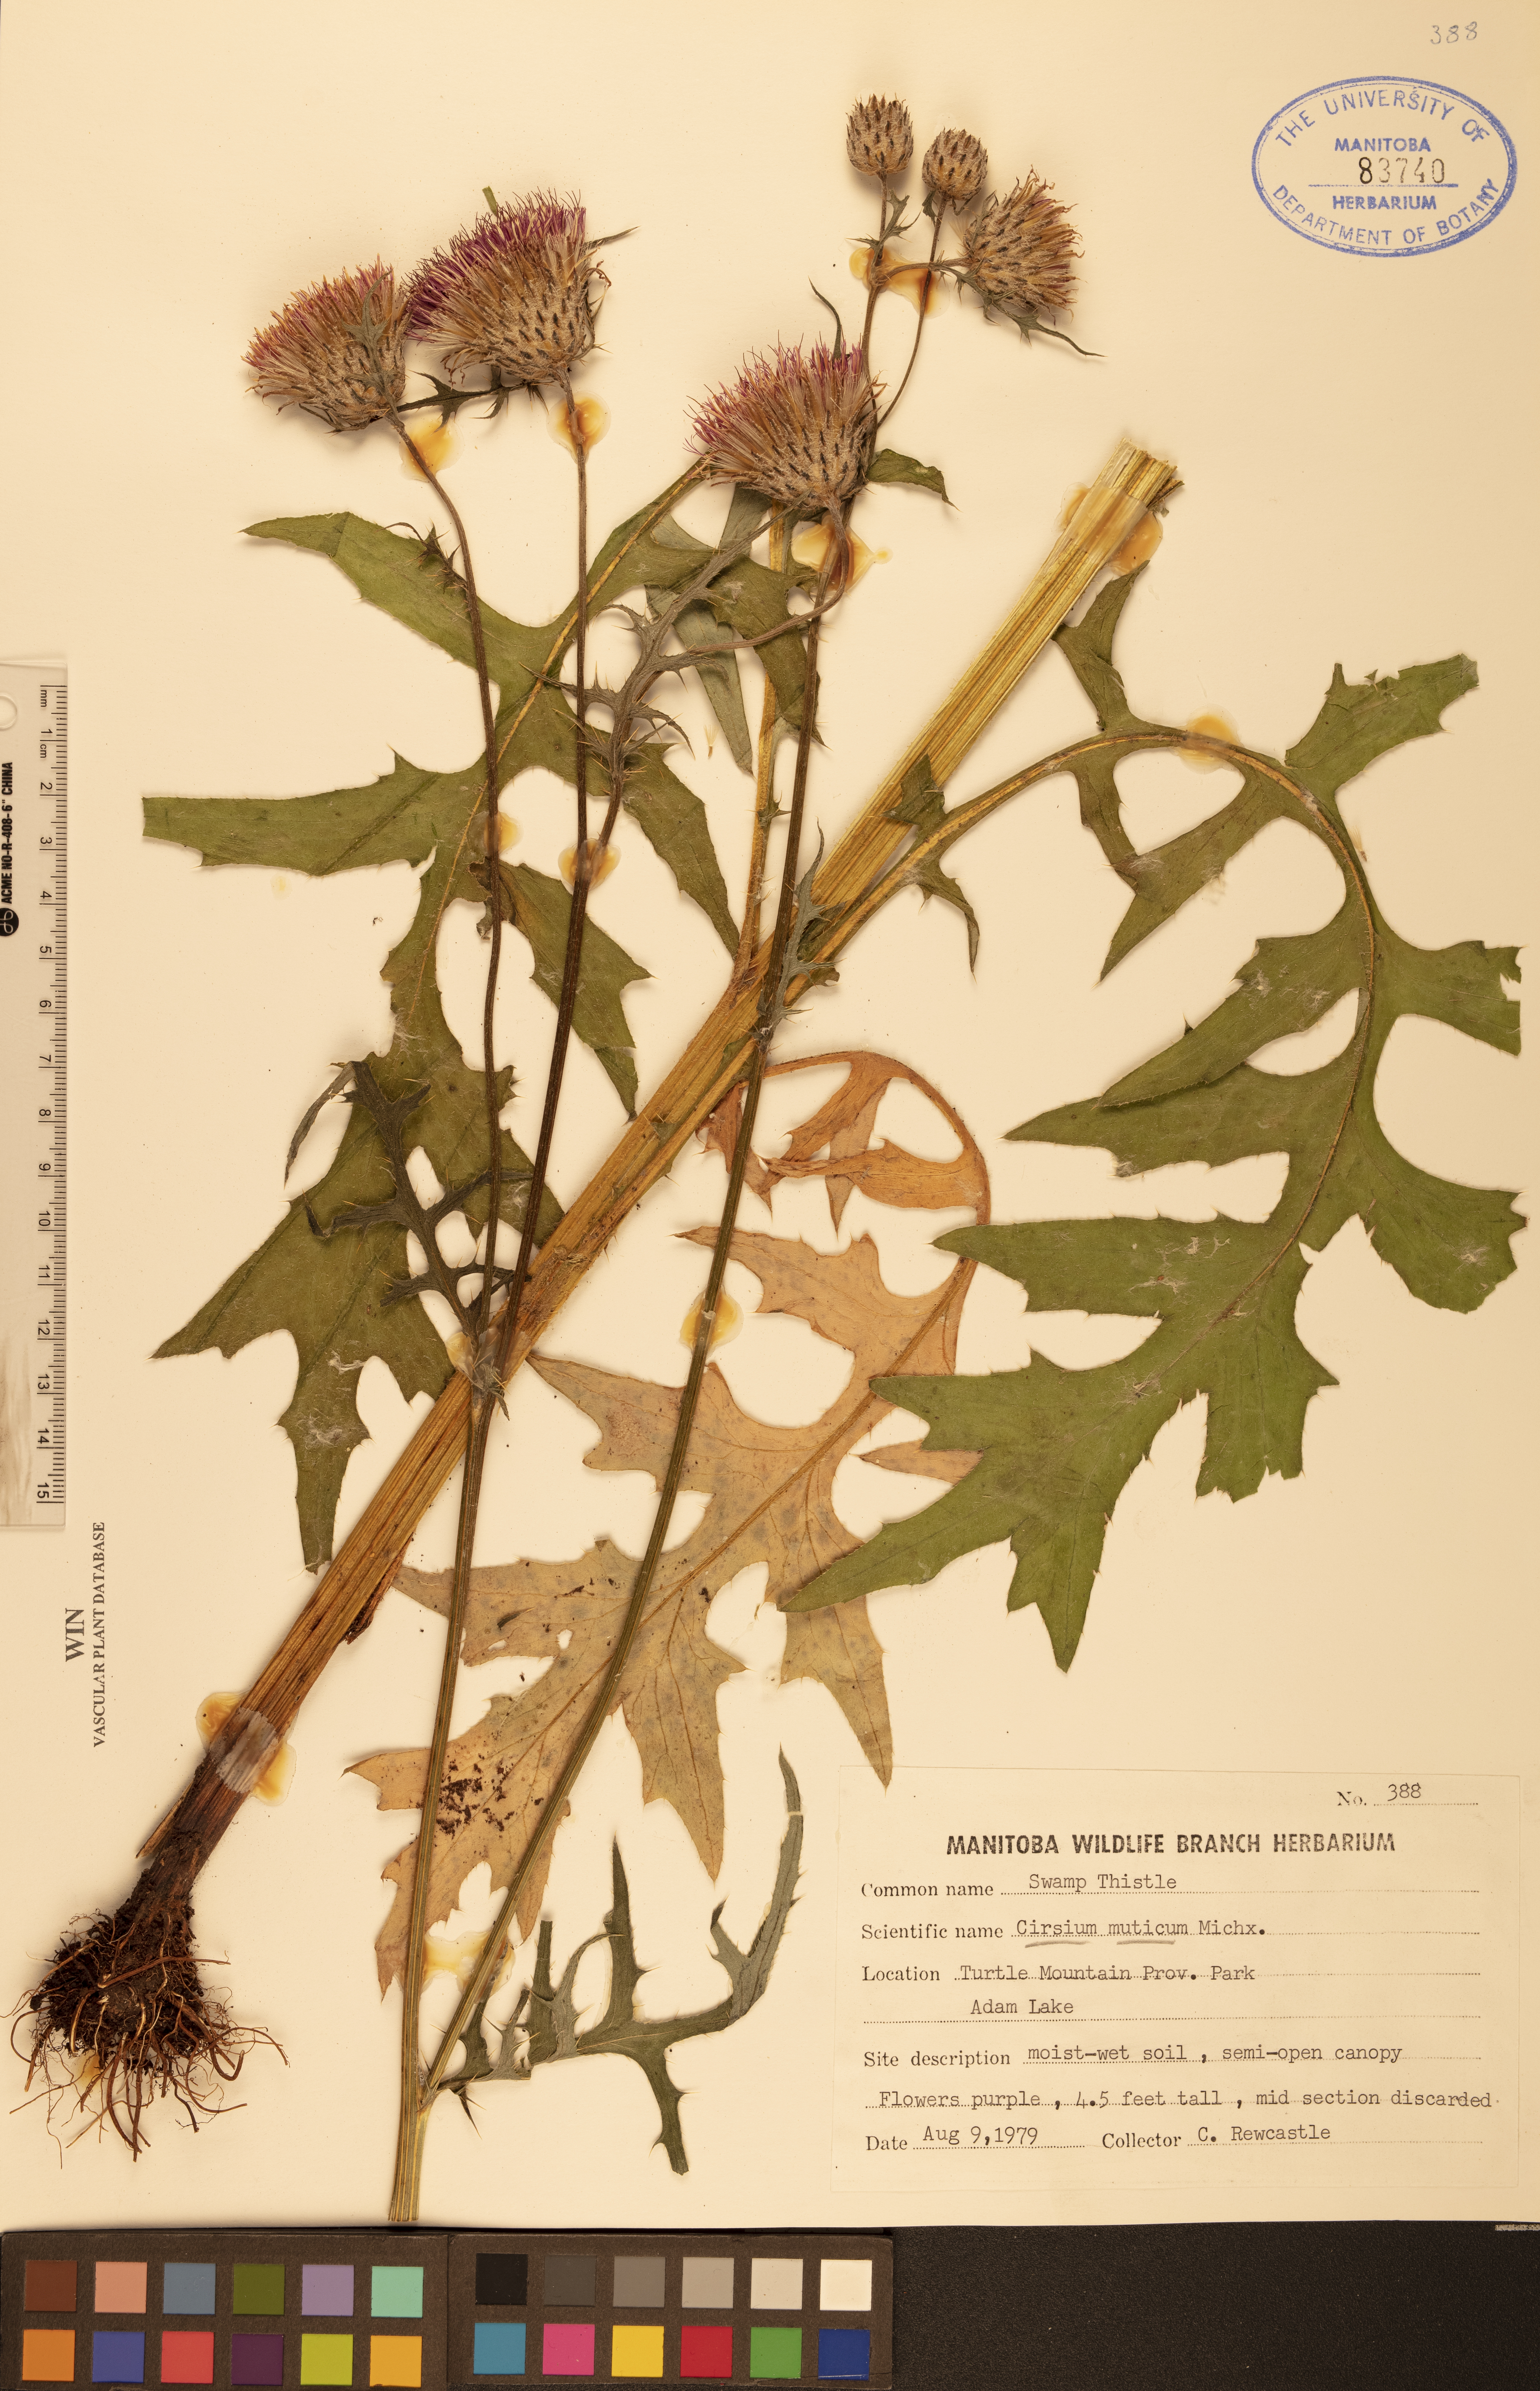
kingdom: Plantae
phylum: Tracheophyta
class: Magnoliopsida
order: Asterales
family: Asteraceae
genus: Cirsium
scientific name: Cirsium muticum
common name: Dunce-nettle
